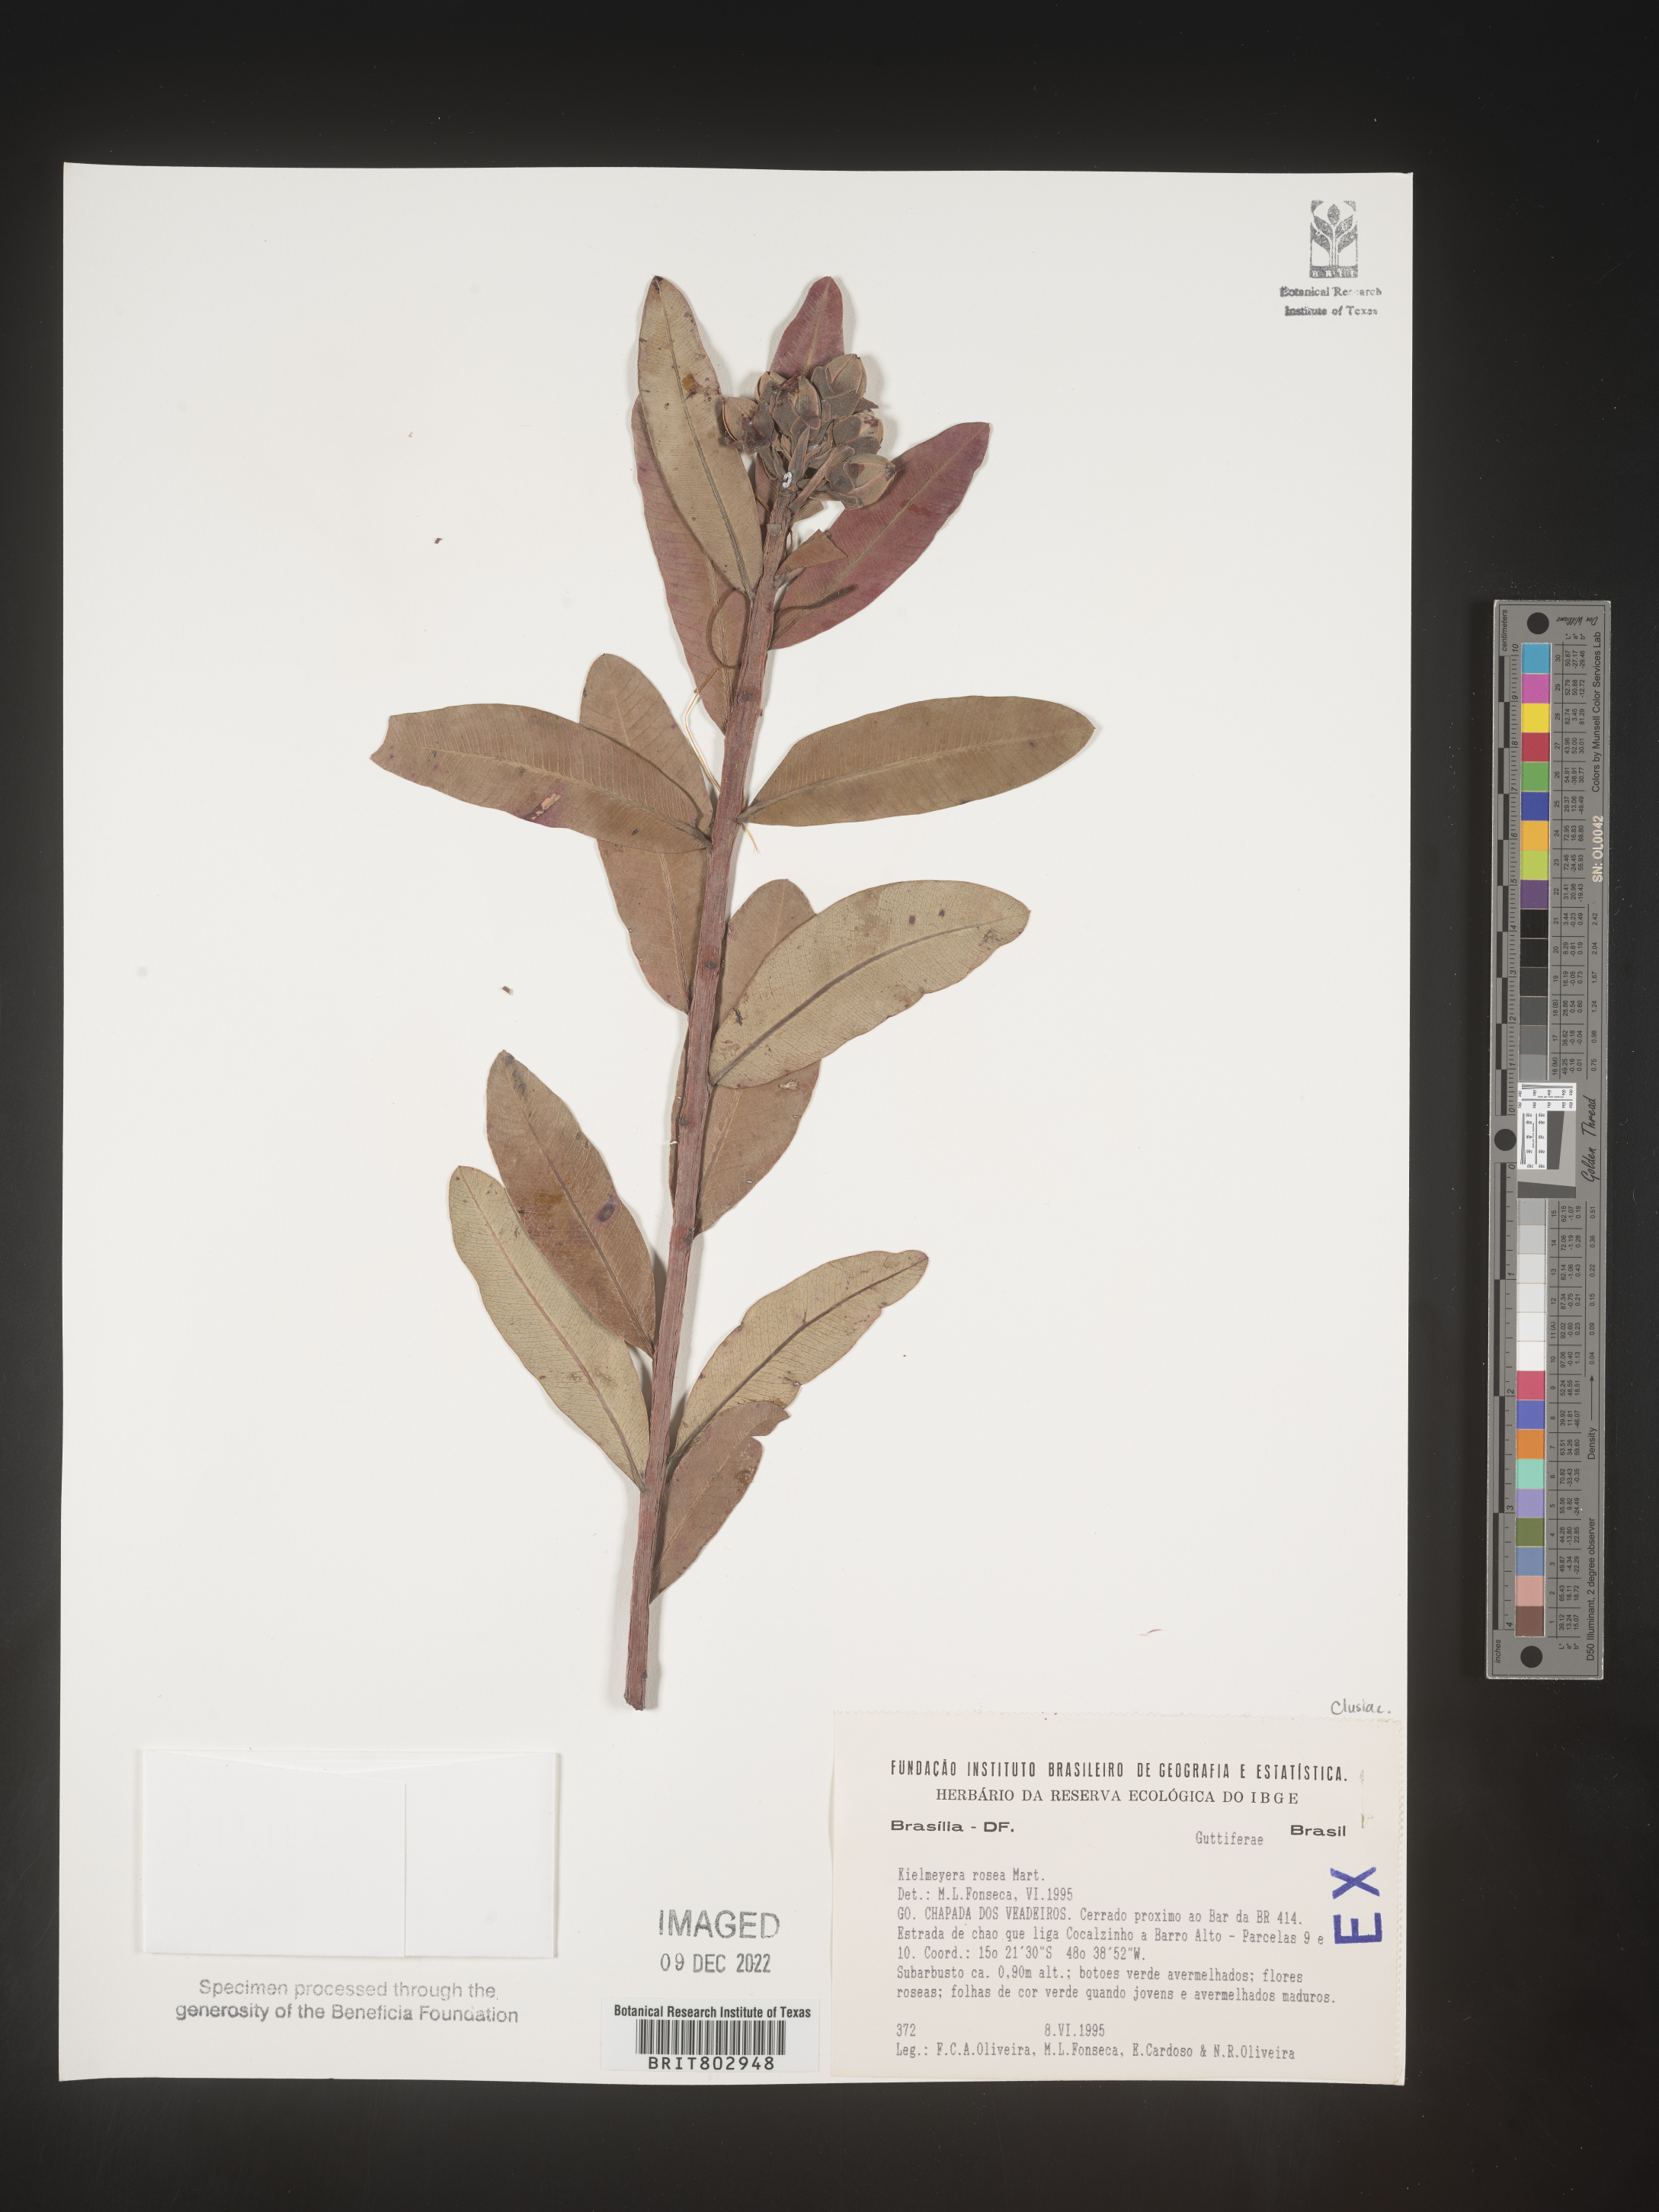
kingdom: Plantae
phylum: Tracheophyta
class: Magnoliopsida
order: Malpighiales
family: Calophyllaceae
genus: Kielmeyera
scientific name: Kielmeyera
